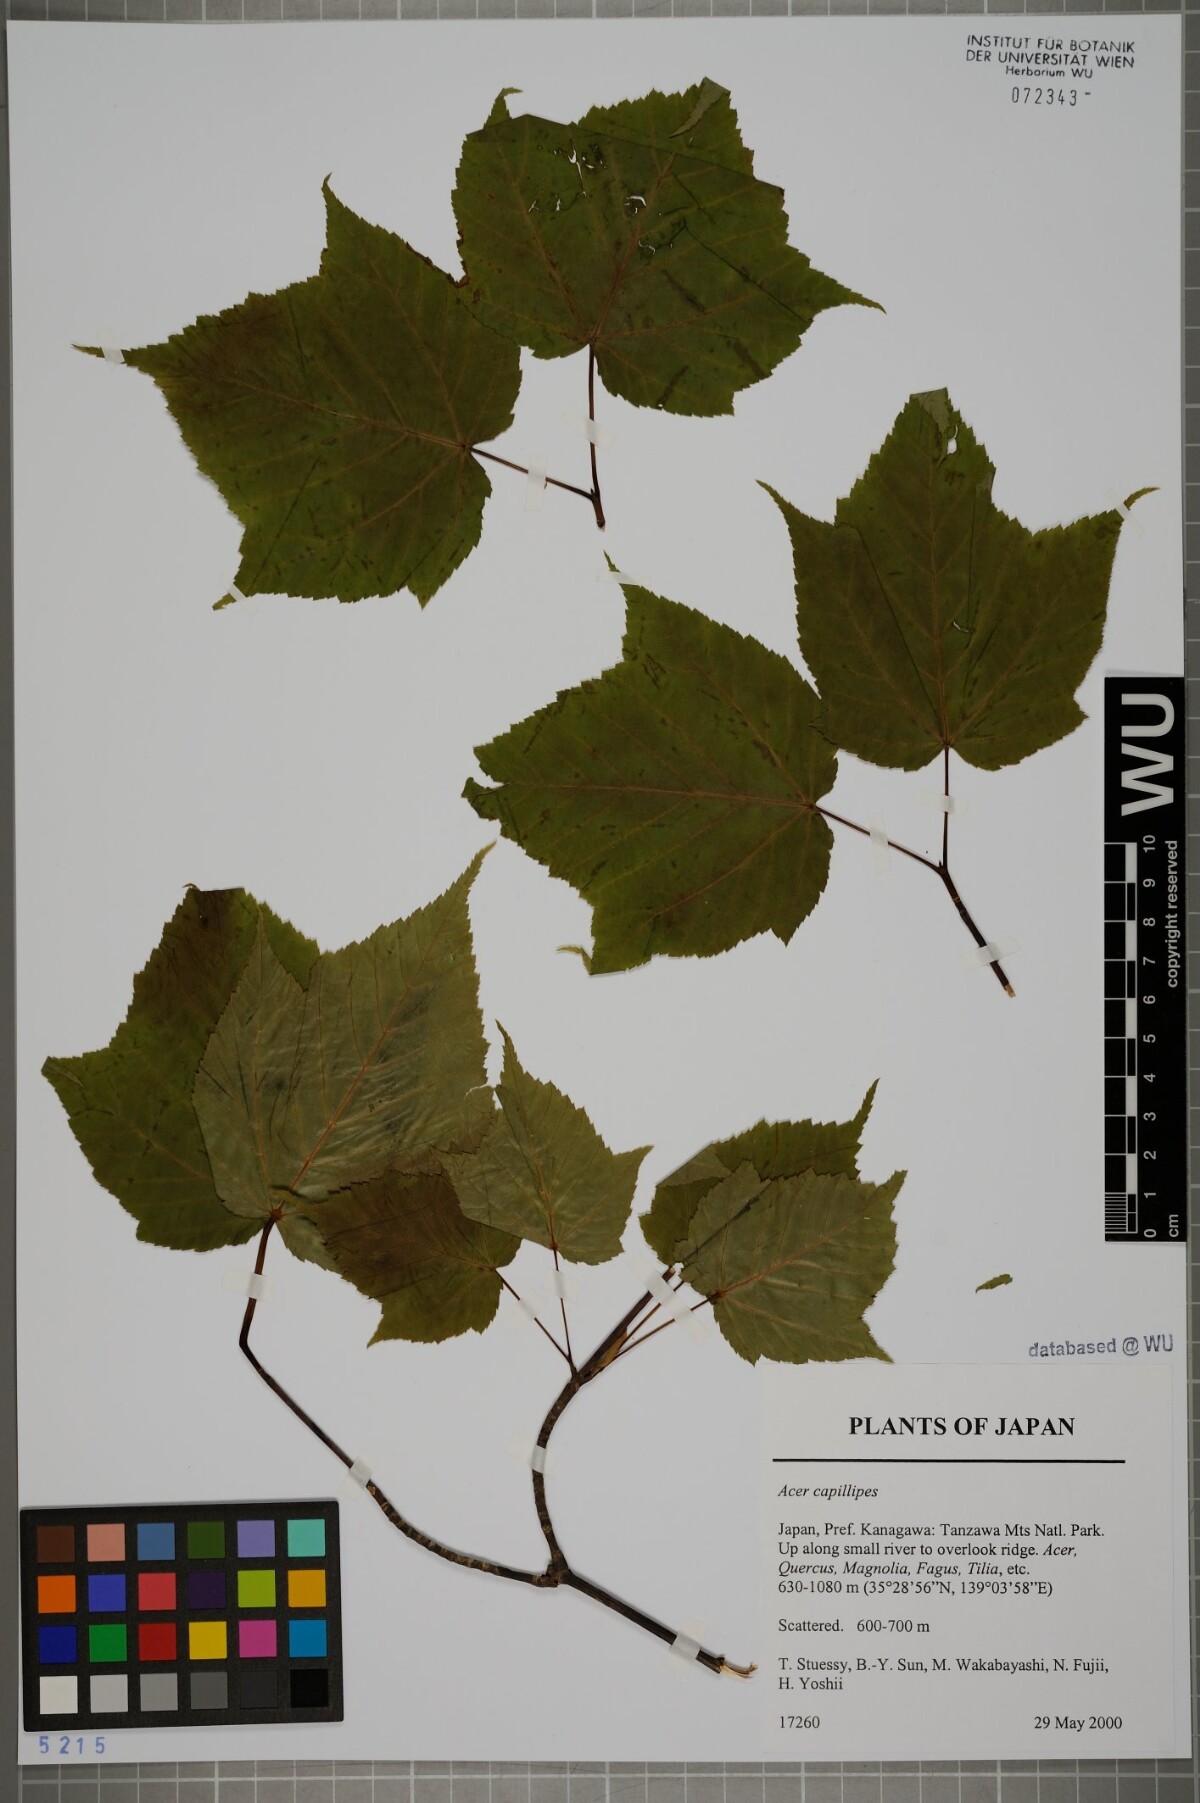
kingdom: Plantae
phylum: Tracheophyta
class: Magnoliopsida
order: Sapindales
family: Sapindaceae
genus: Acer
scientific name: Acer capillipes
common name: Kyushu maple
